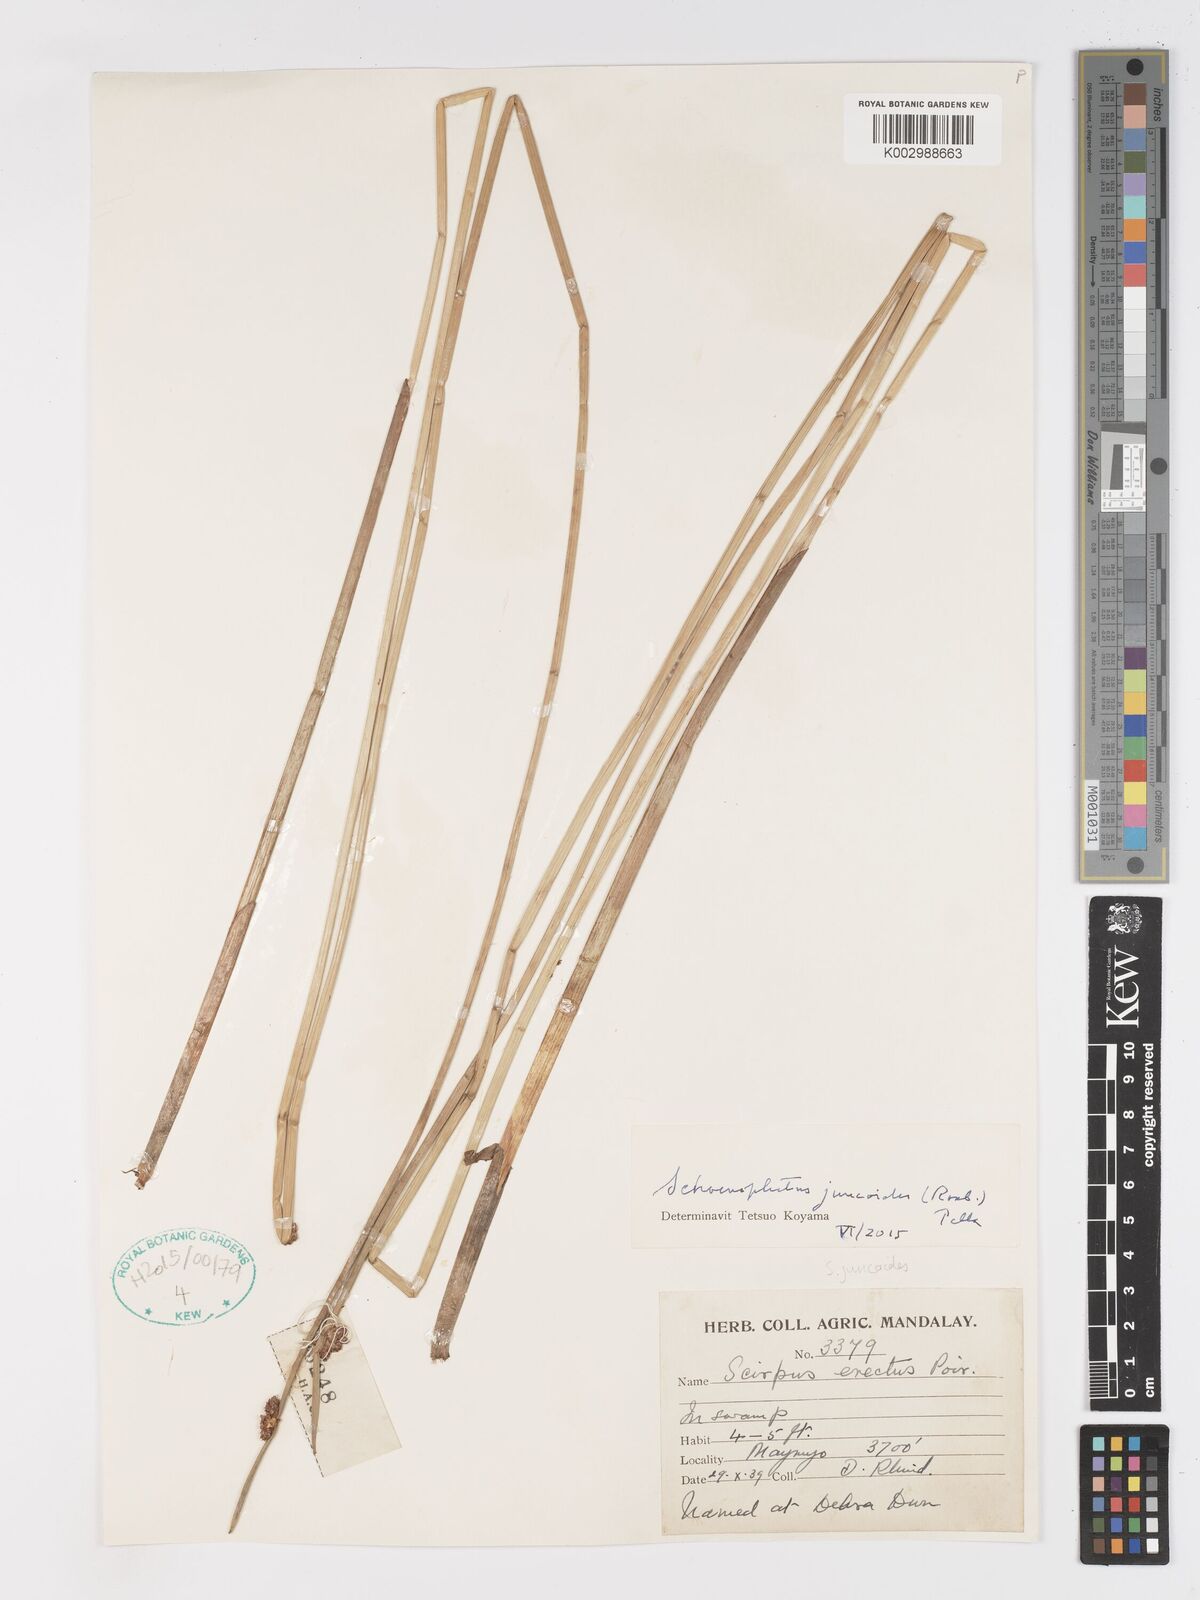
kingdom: Plantae
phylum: Tracheophyta
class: Liliopsida
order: Poales
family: Cyperaceae
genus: Schoenoplectiella
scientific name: Schoenoplectiella juncoides
